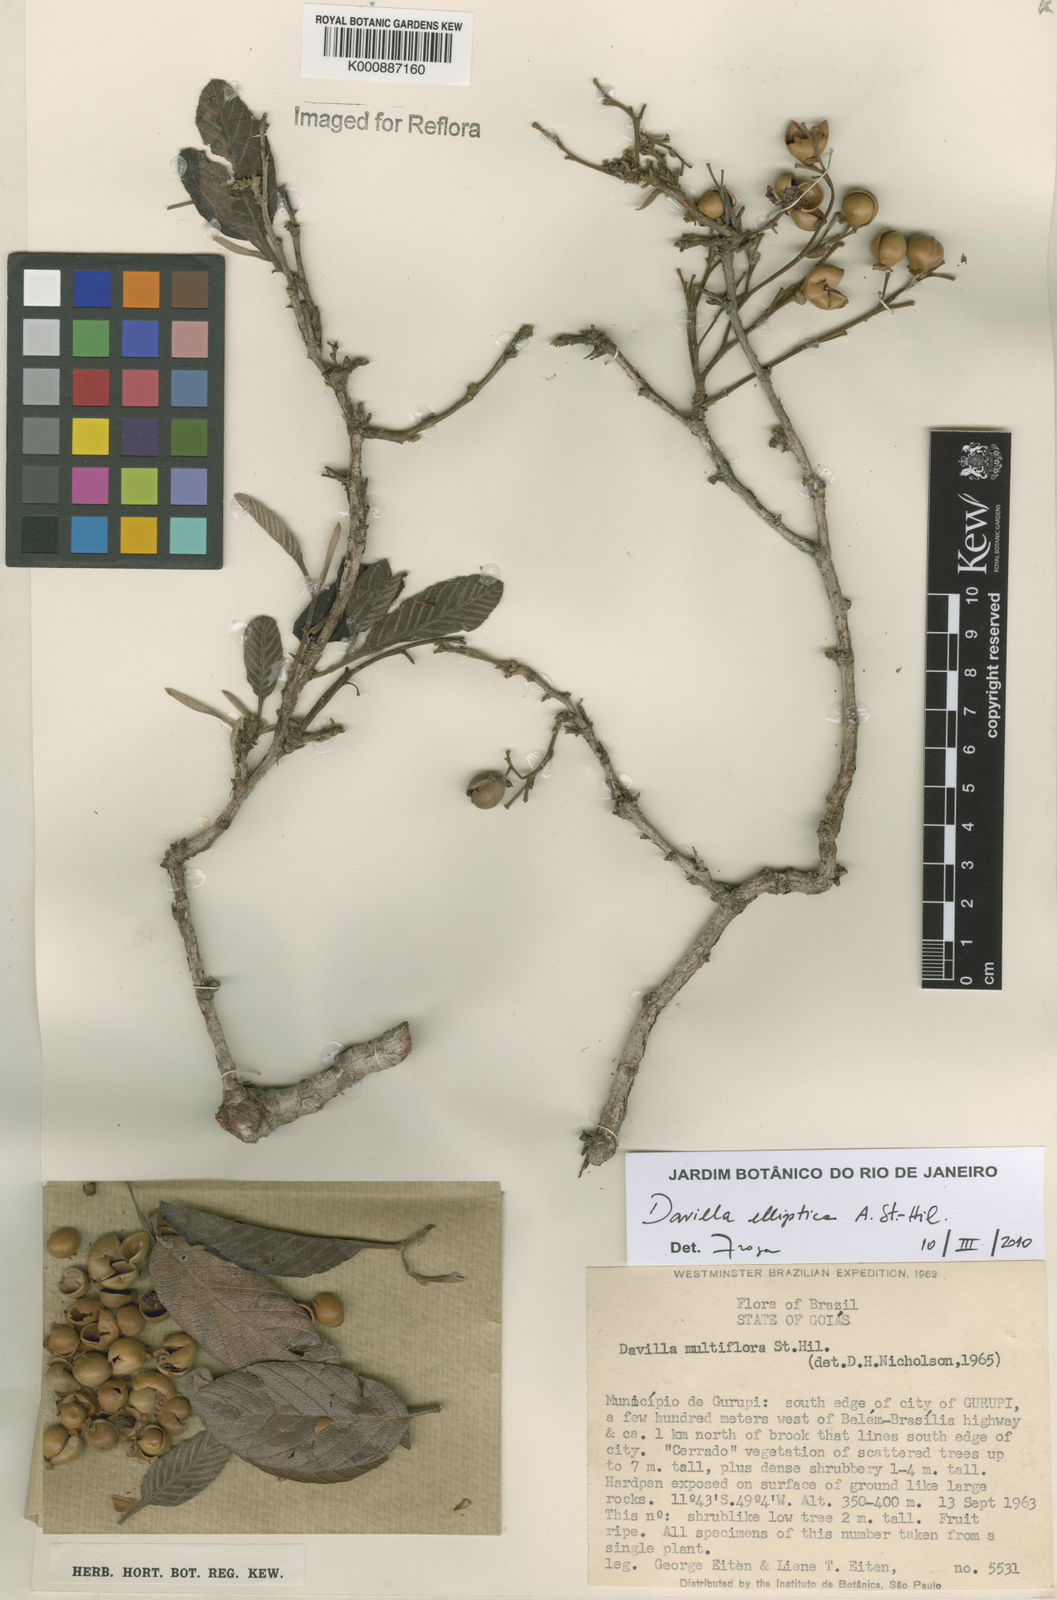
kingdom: Plantae
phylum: Tracheophyta
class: Magnoliopsida
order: Dilleniales
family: Dilleniaceae
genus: Davilla
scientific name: Davilla elliptica
